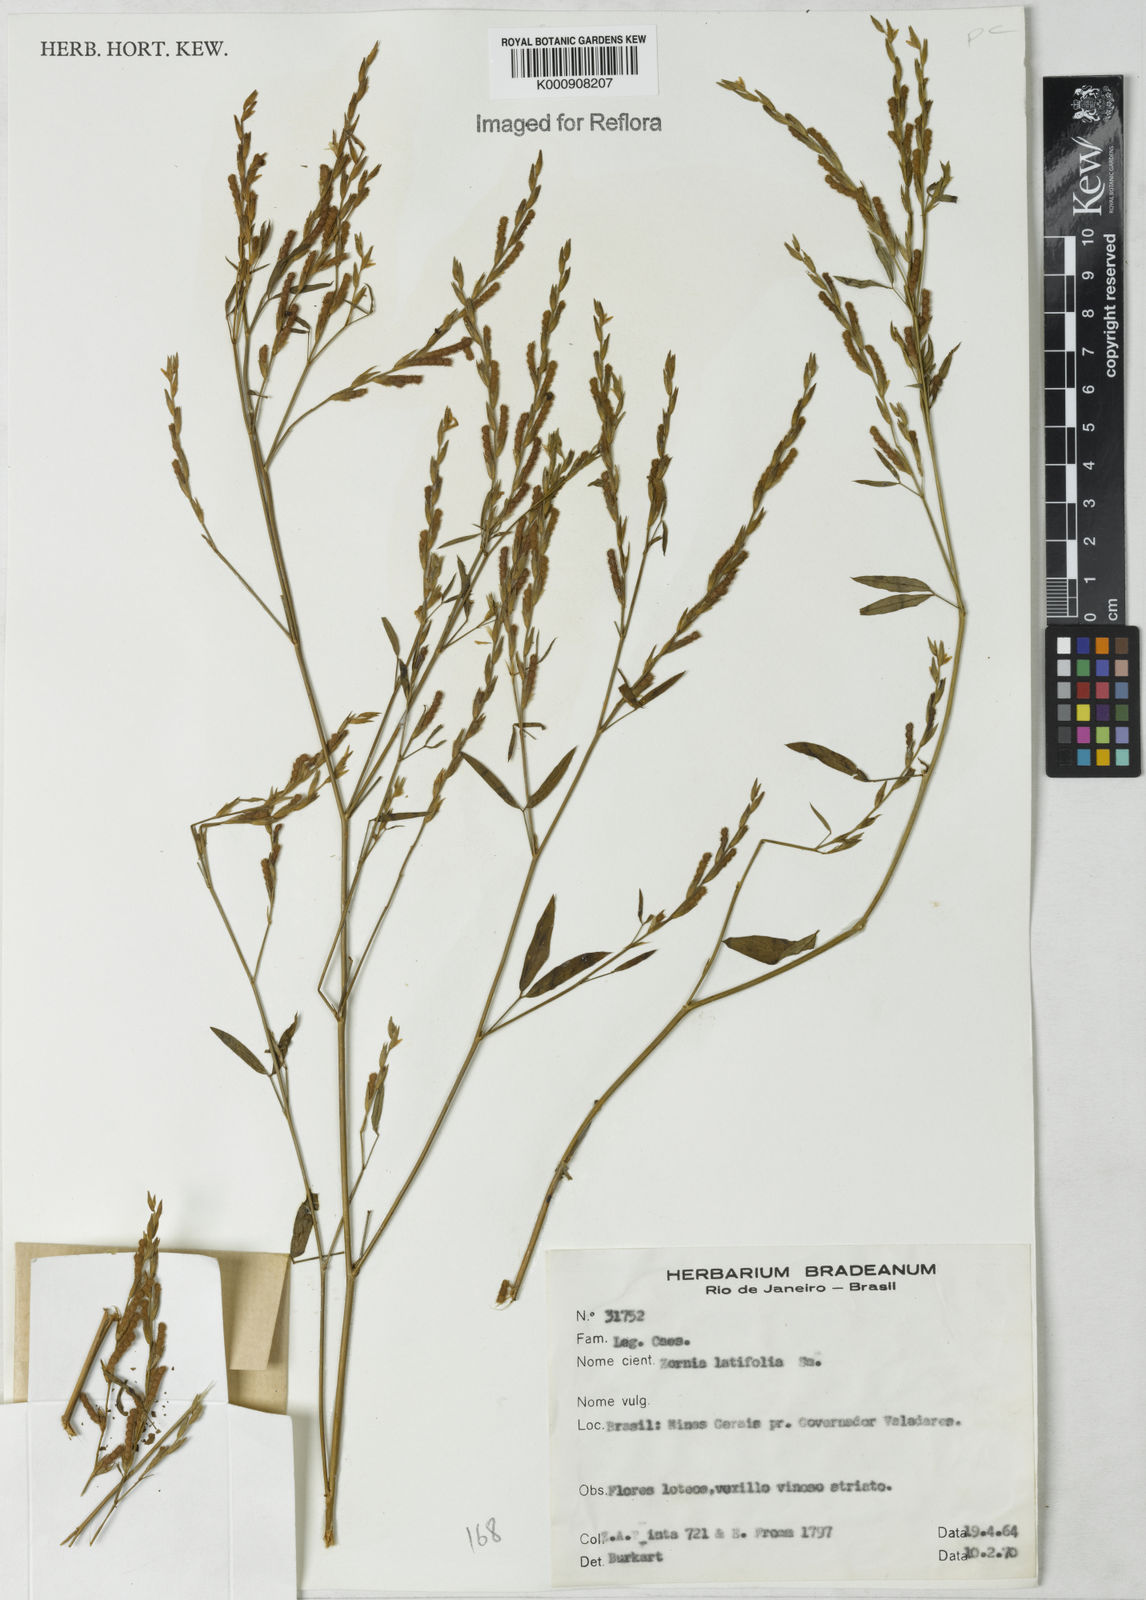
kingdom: Plantae
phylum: Tracheophyta
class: Magnoliopsida
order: Fabales
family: Fabaceae
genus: Zornia
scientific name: Zornia latifolia
